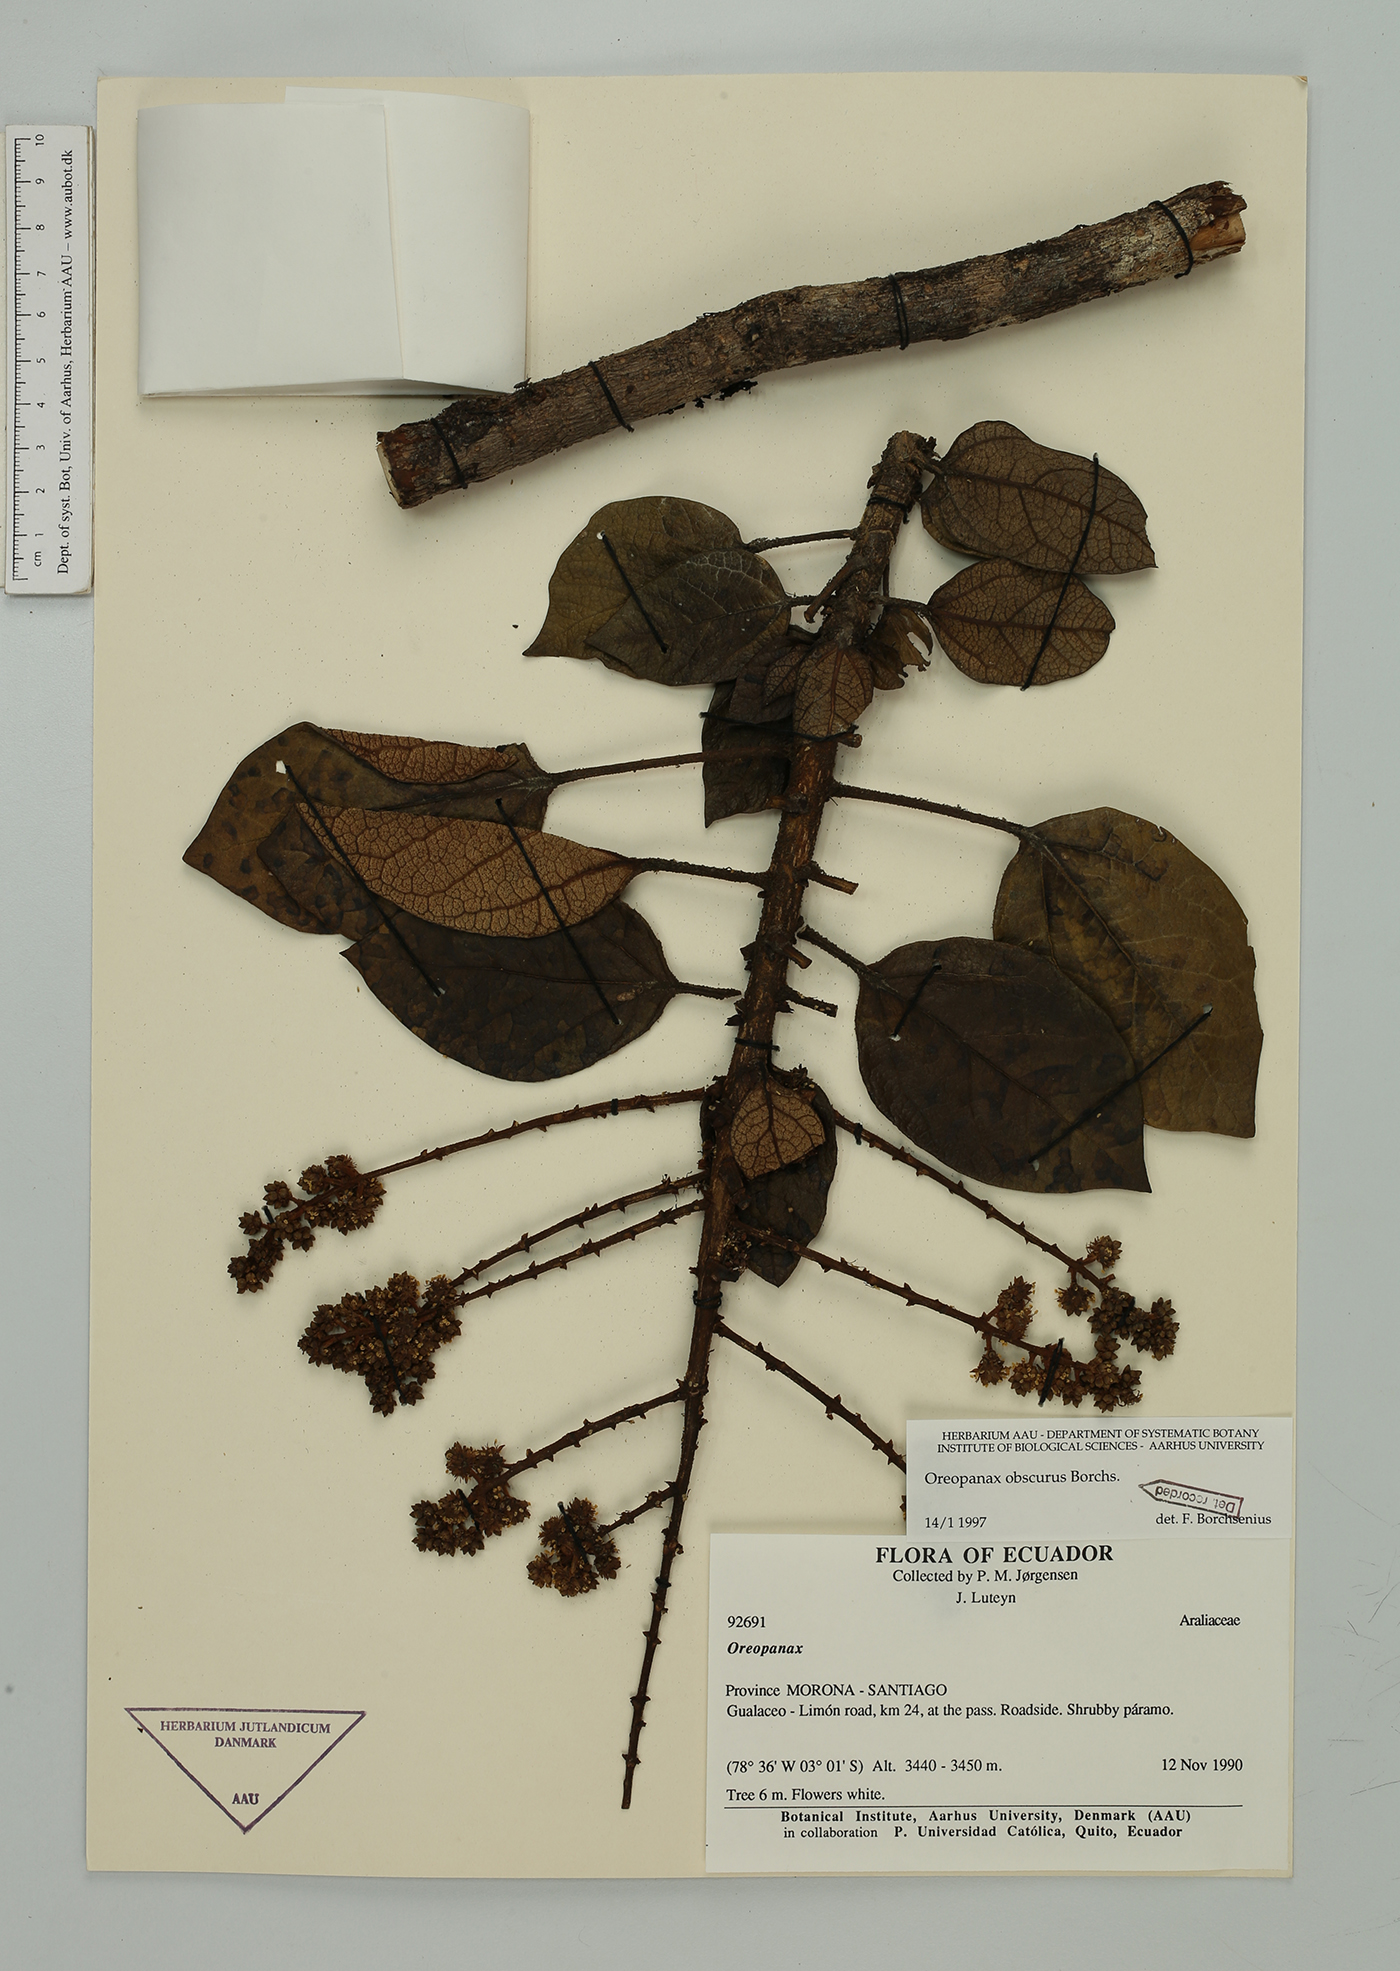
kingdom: Plantae
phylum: Tracheophyta
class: Magnoliopsida
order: Apiales
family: Araliaceae
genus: Oreopanax
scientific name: Oreopanax obscurus
